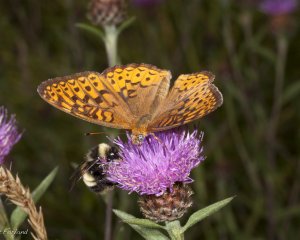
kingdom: Animalia
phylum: Arthropoda
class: Insecta
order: Lepidoptera
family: Nymphalidae
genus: Speyeria
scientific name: Speyeria atlantis
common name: Atlantis Fritillary
